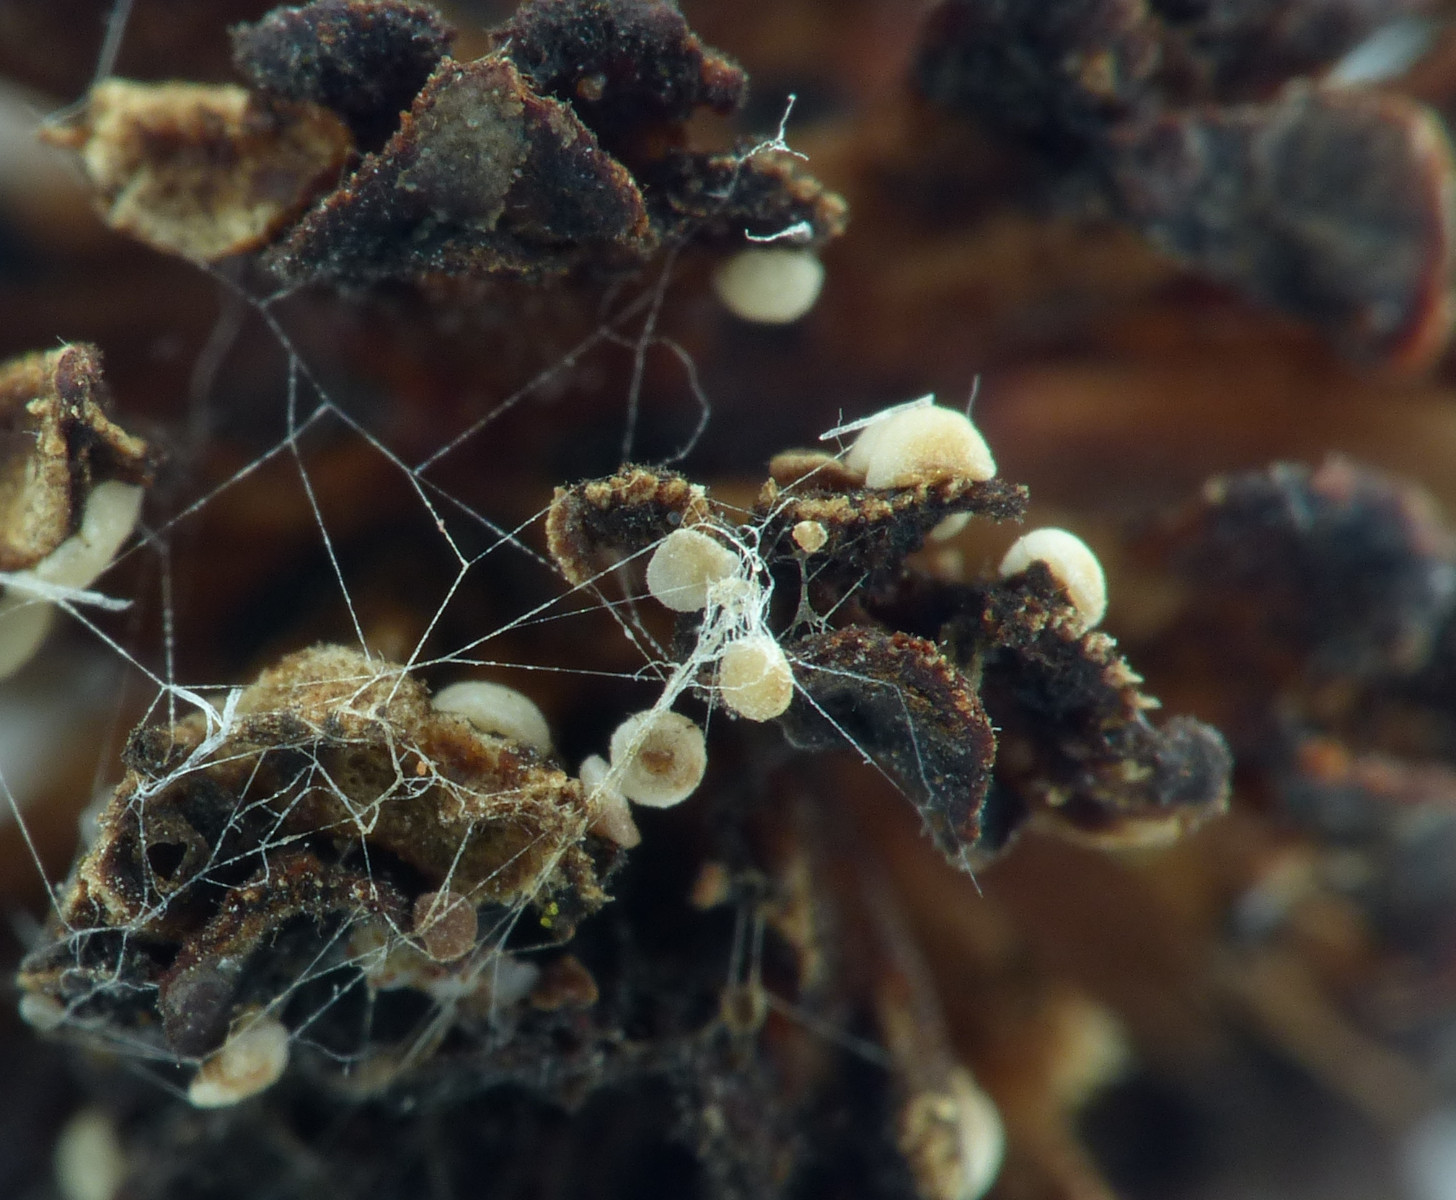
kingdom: Fungi
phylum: Ascomycota
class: Leotiomycetes
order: Helotiales
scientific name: Helotiales
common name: stilkskiveordenen
